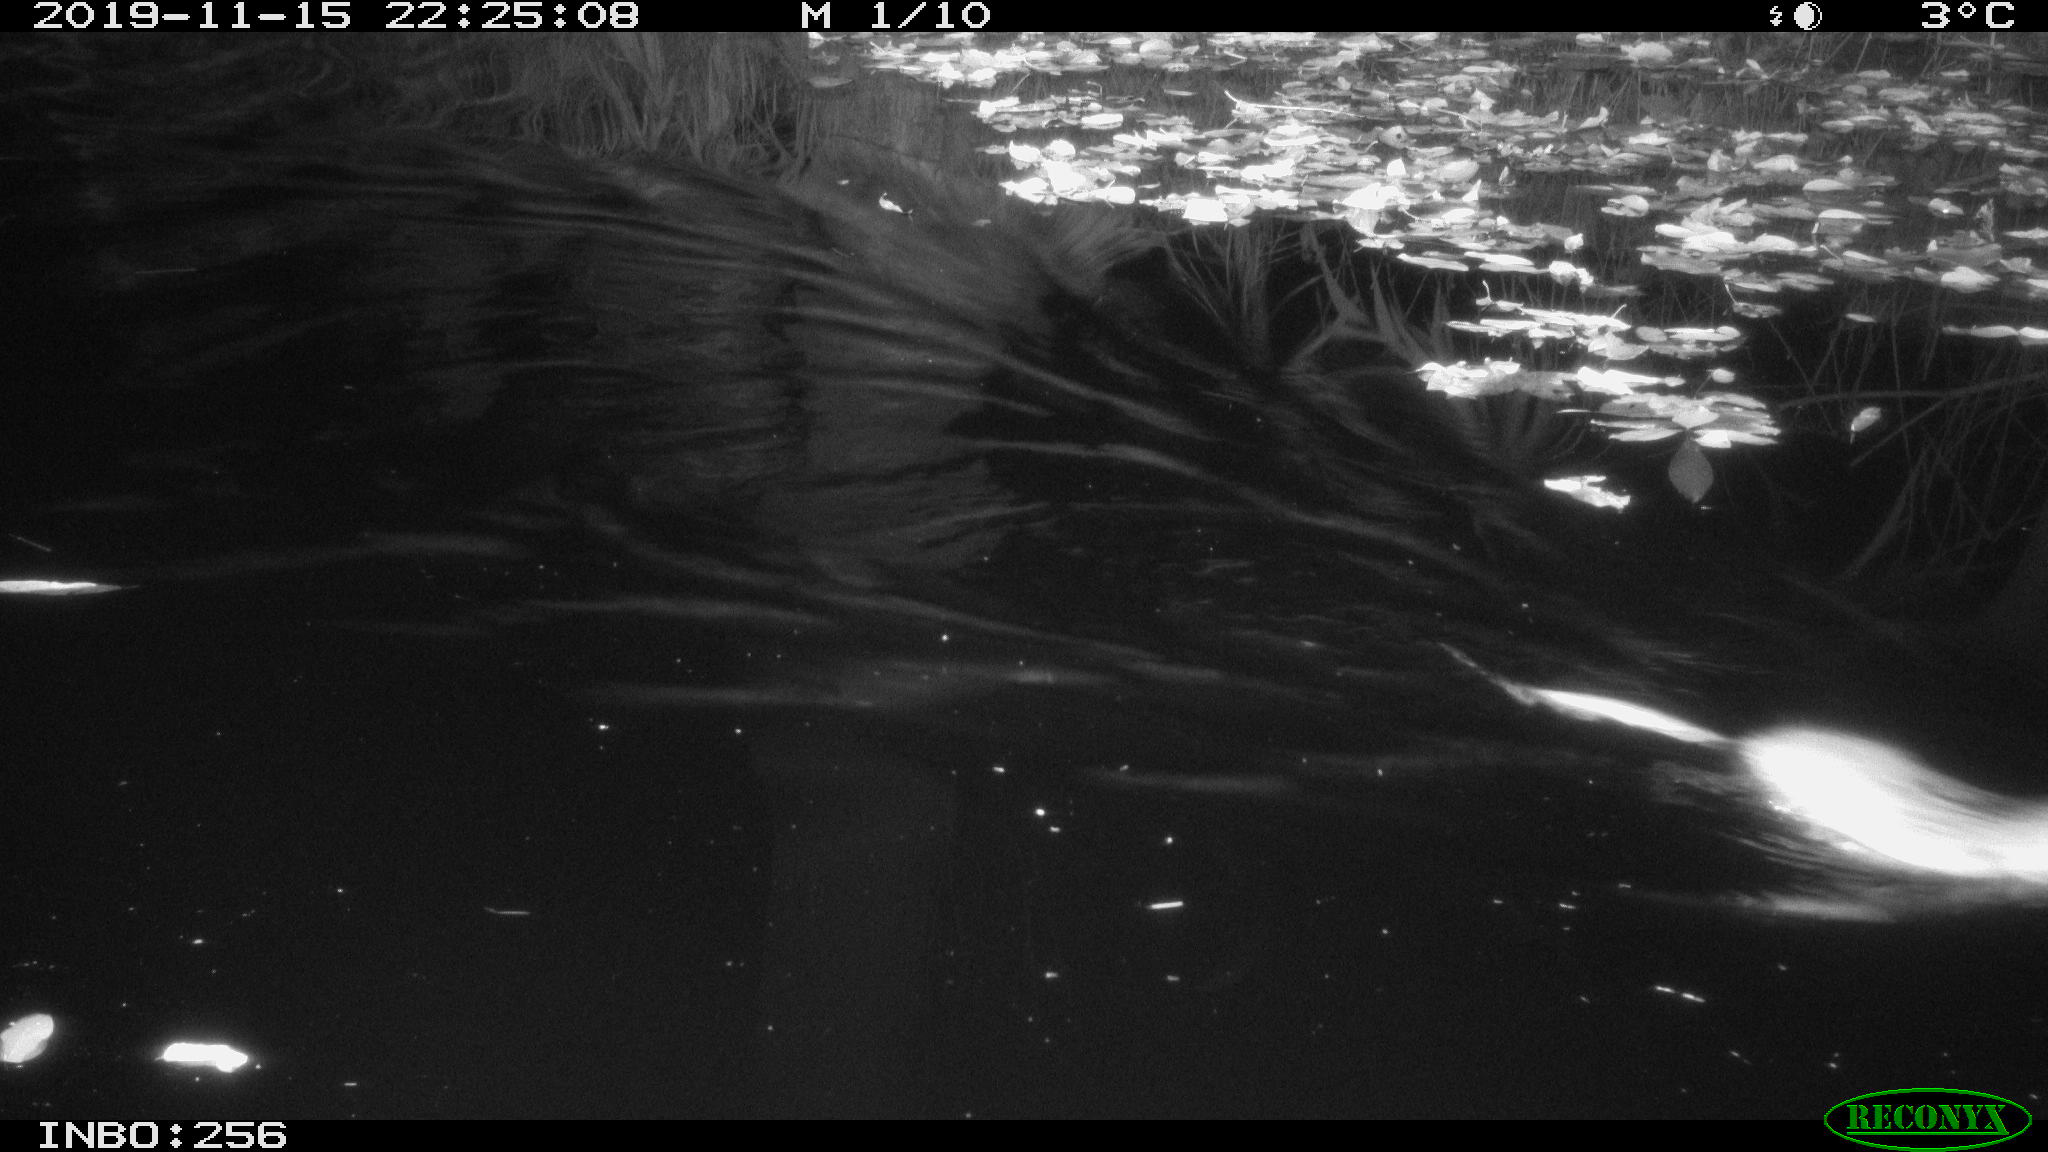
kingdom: Animalia
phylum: Chordata
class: Mammalia
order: Rodentia
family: Cricetidae
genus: Ondatra
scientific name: Ondatra zibethicus
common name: Muskrat
